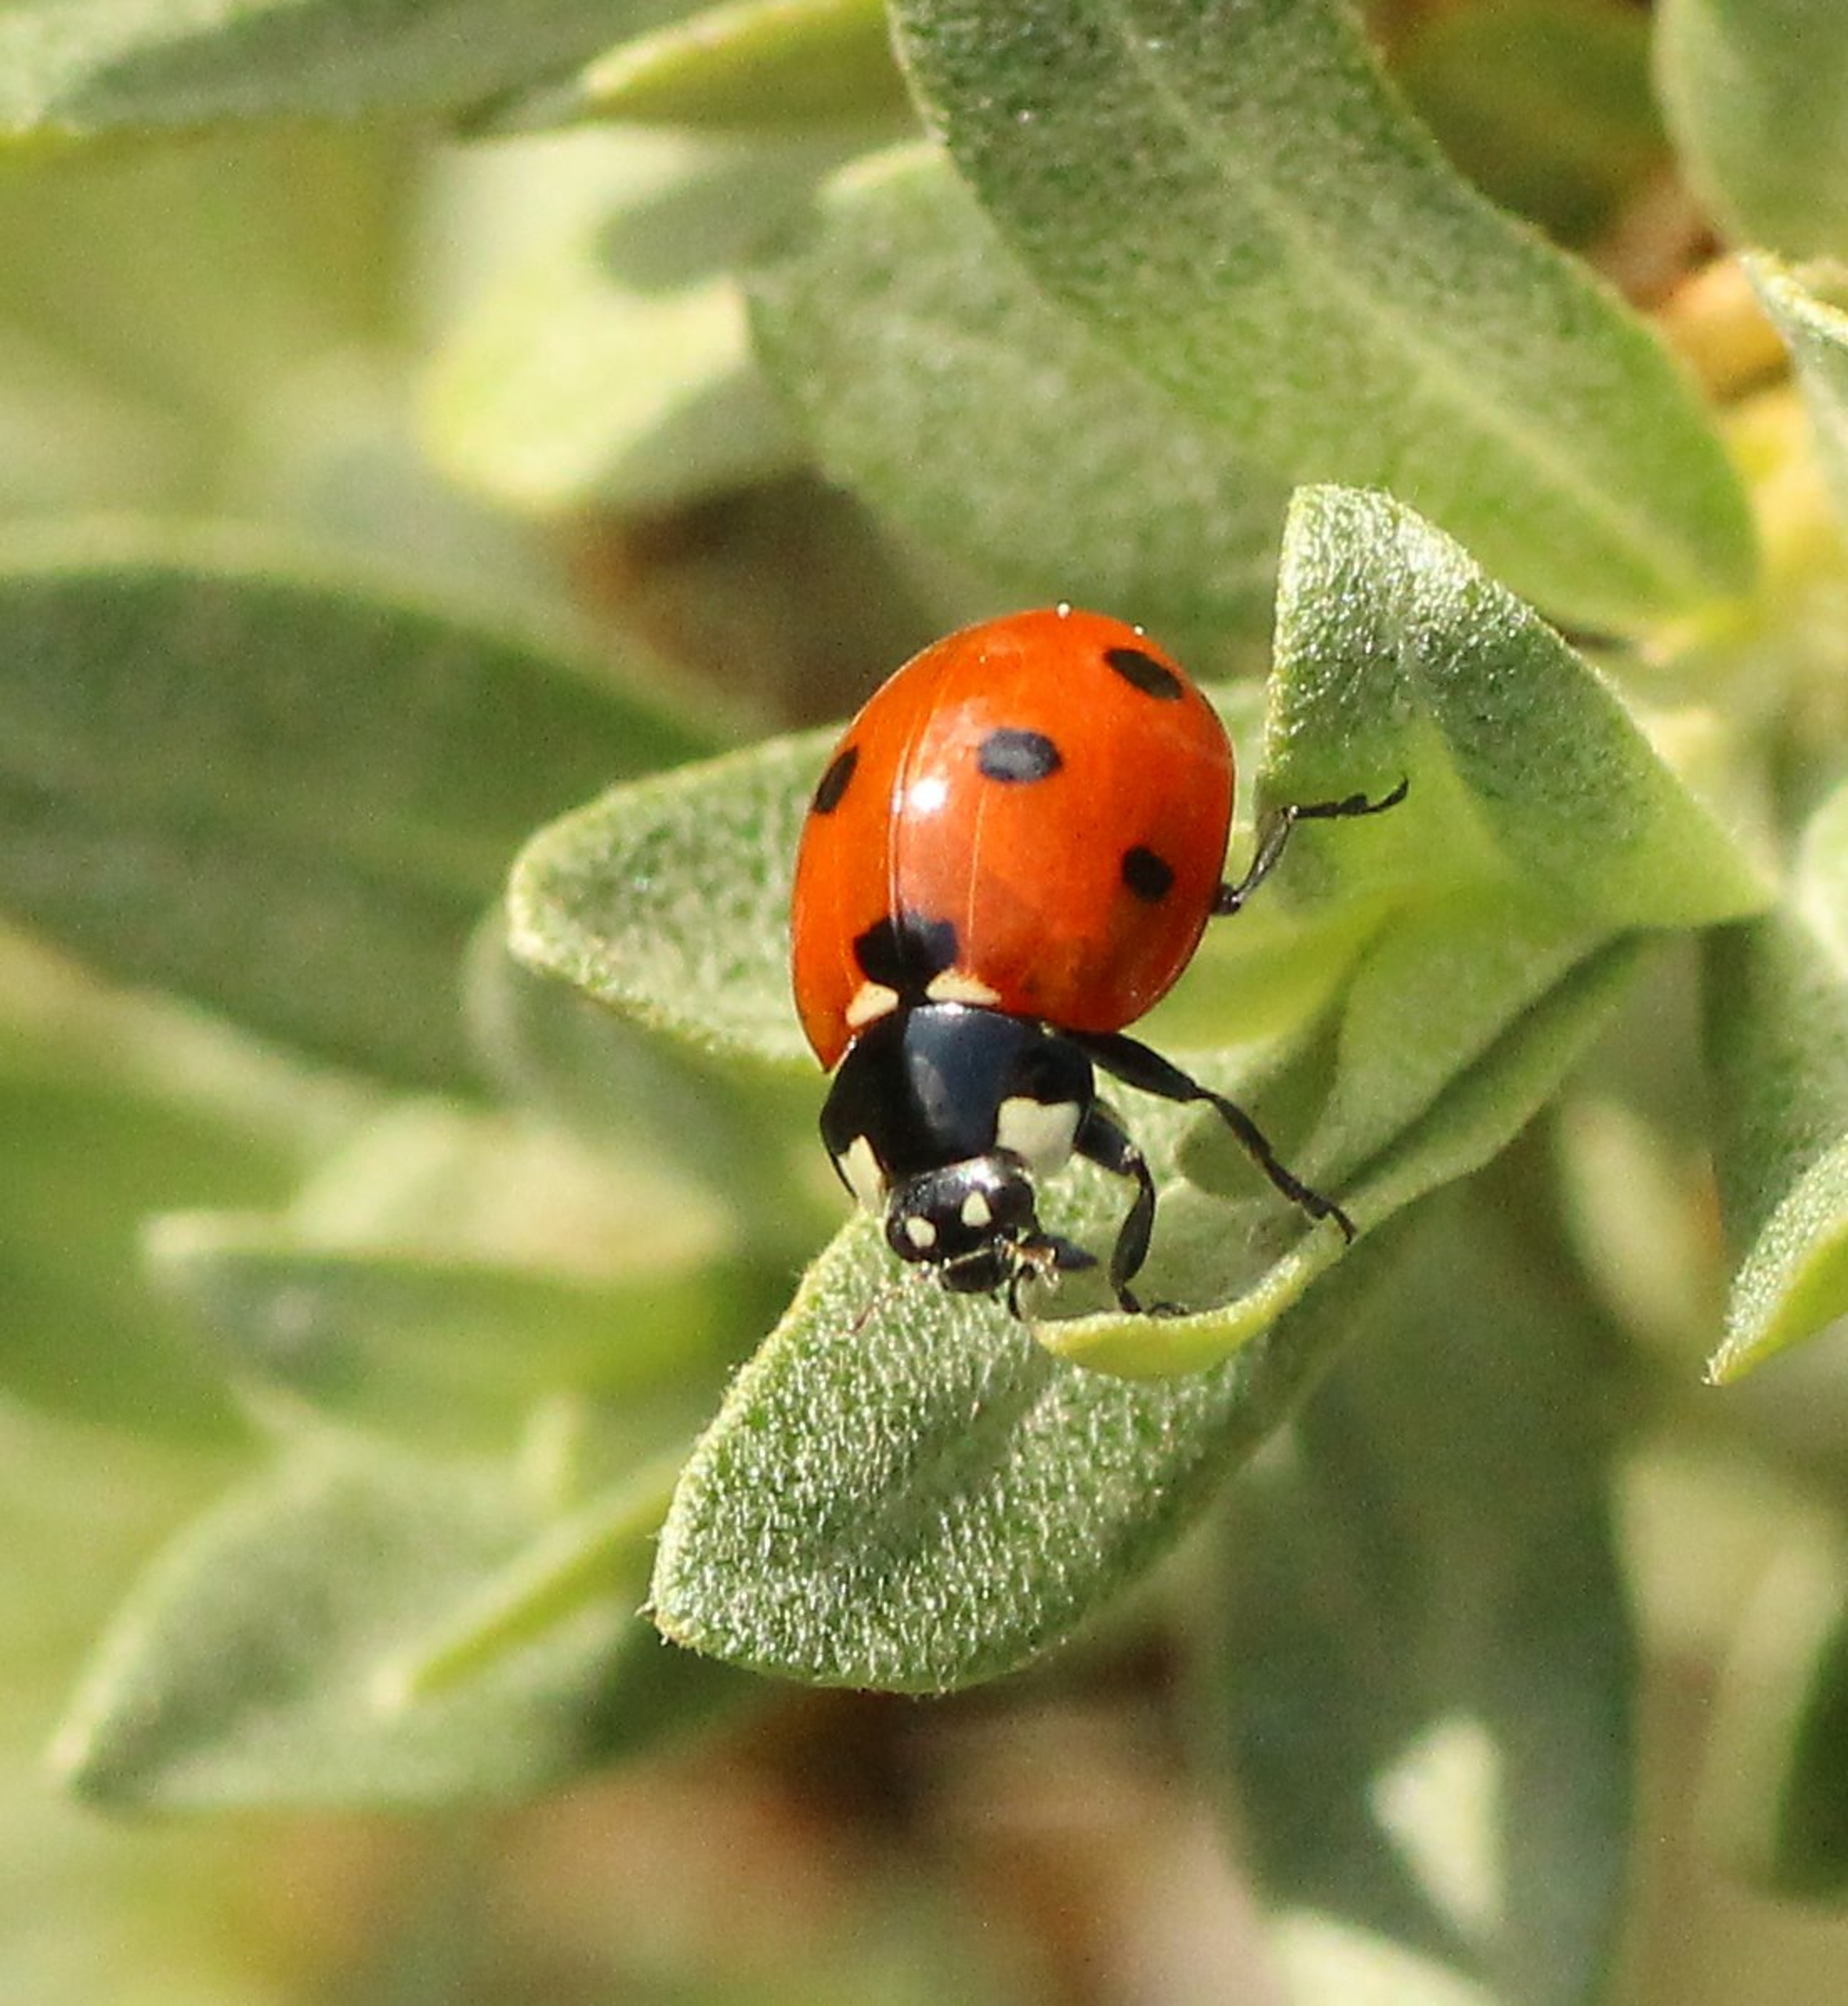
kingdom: Animalia
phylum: Arthropoda
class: Insecta
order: Coleoptera
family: Coccinellidae
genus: Coccinella
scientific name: Coccinella septempunctata
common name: Syvplettet mariehøne
